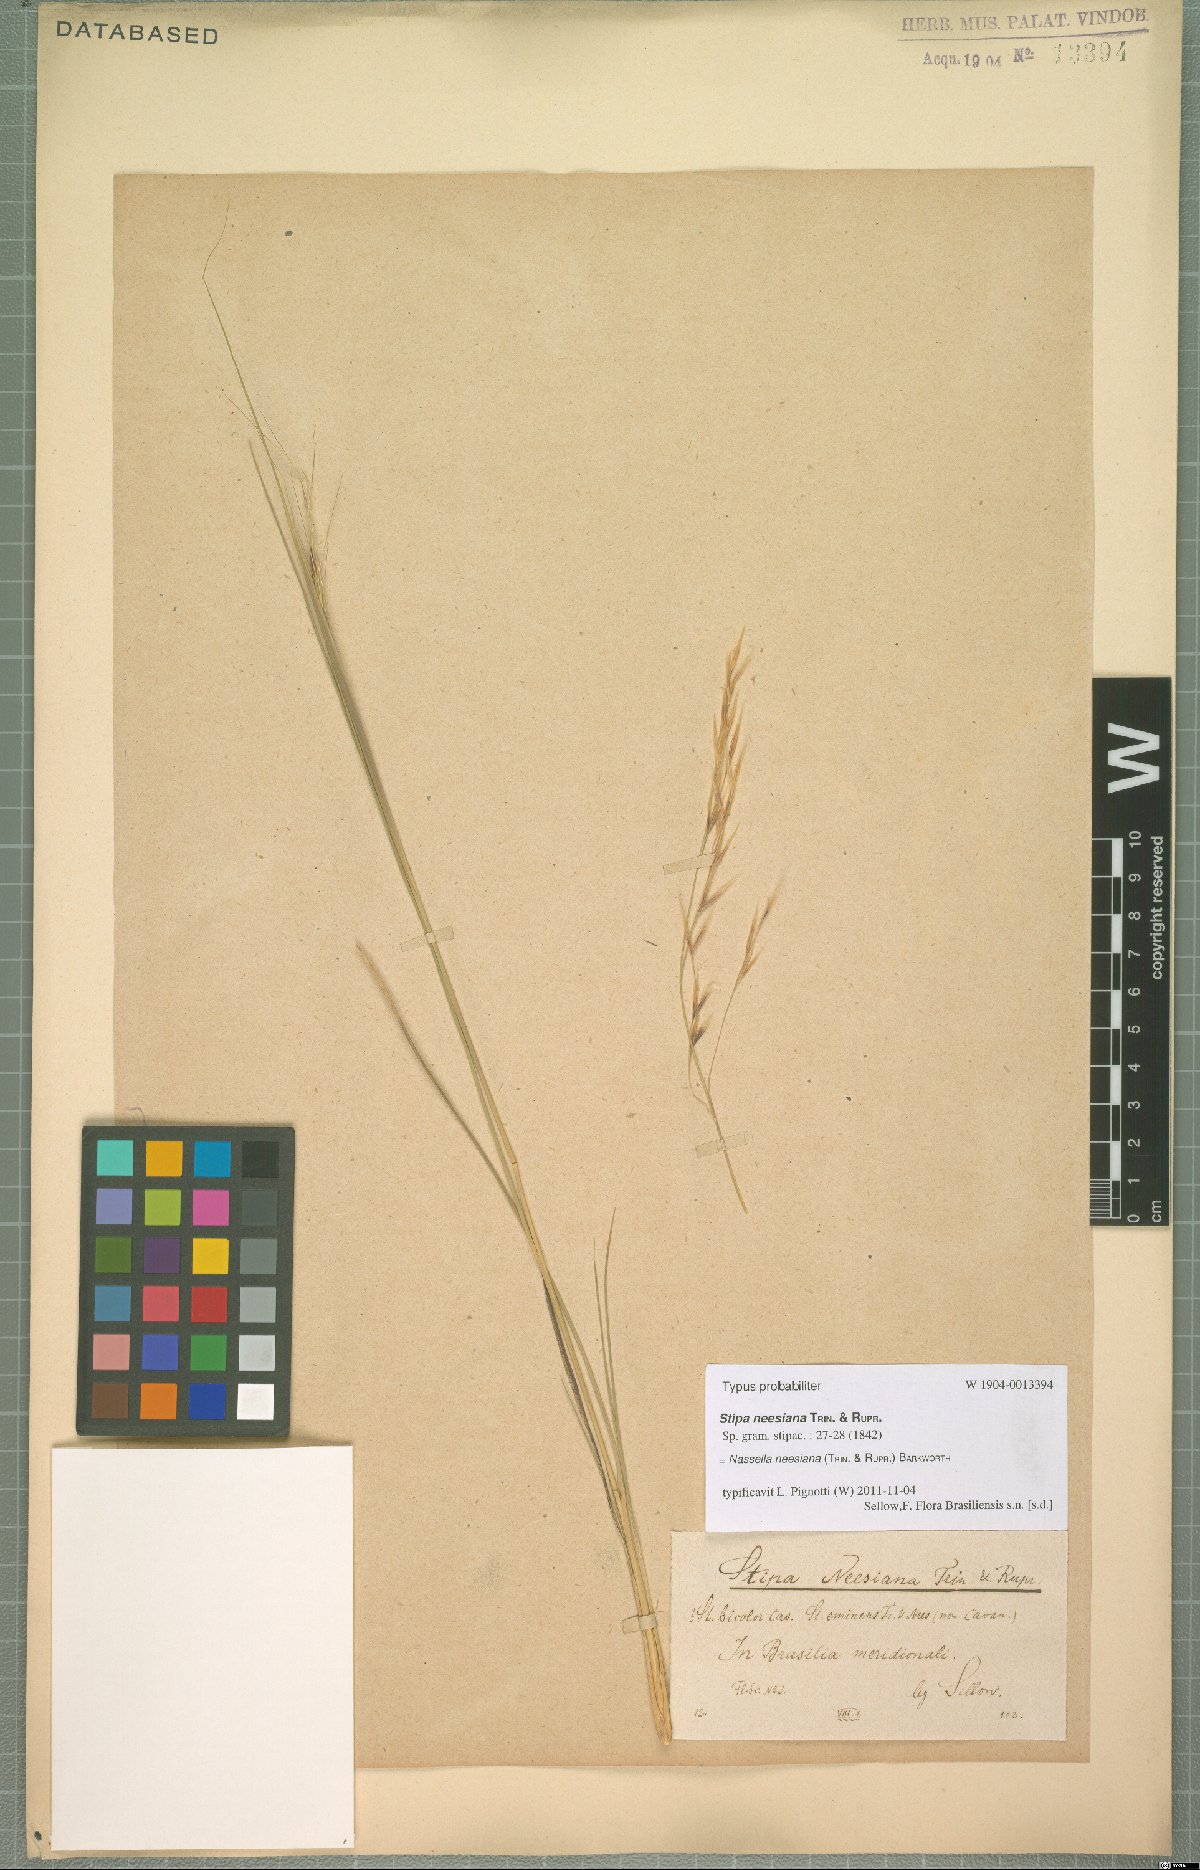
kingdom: Plantae
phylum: Tracheophyta
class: Liliopsida
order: Poales
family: Poaceae
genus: Nassella
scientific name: Nassella neesiana
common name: American needle-grass
